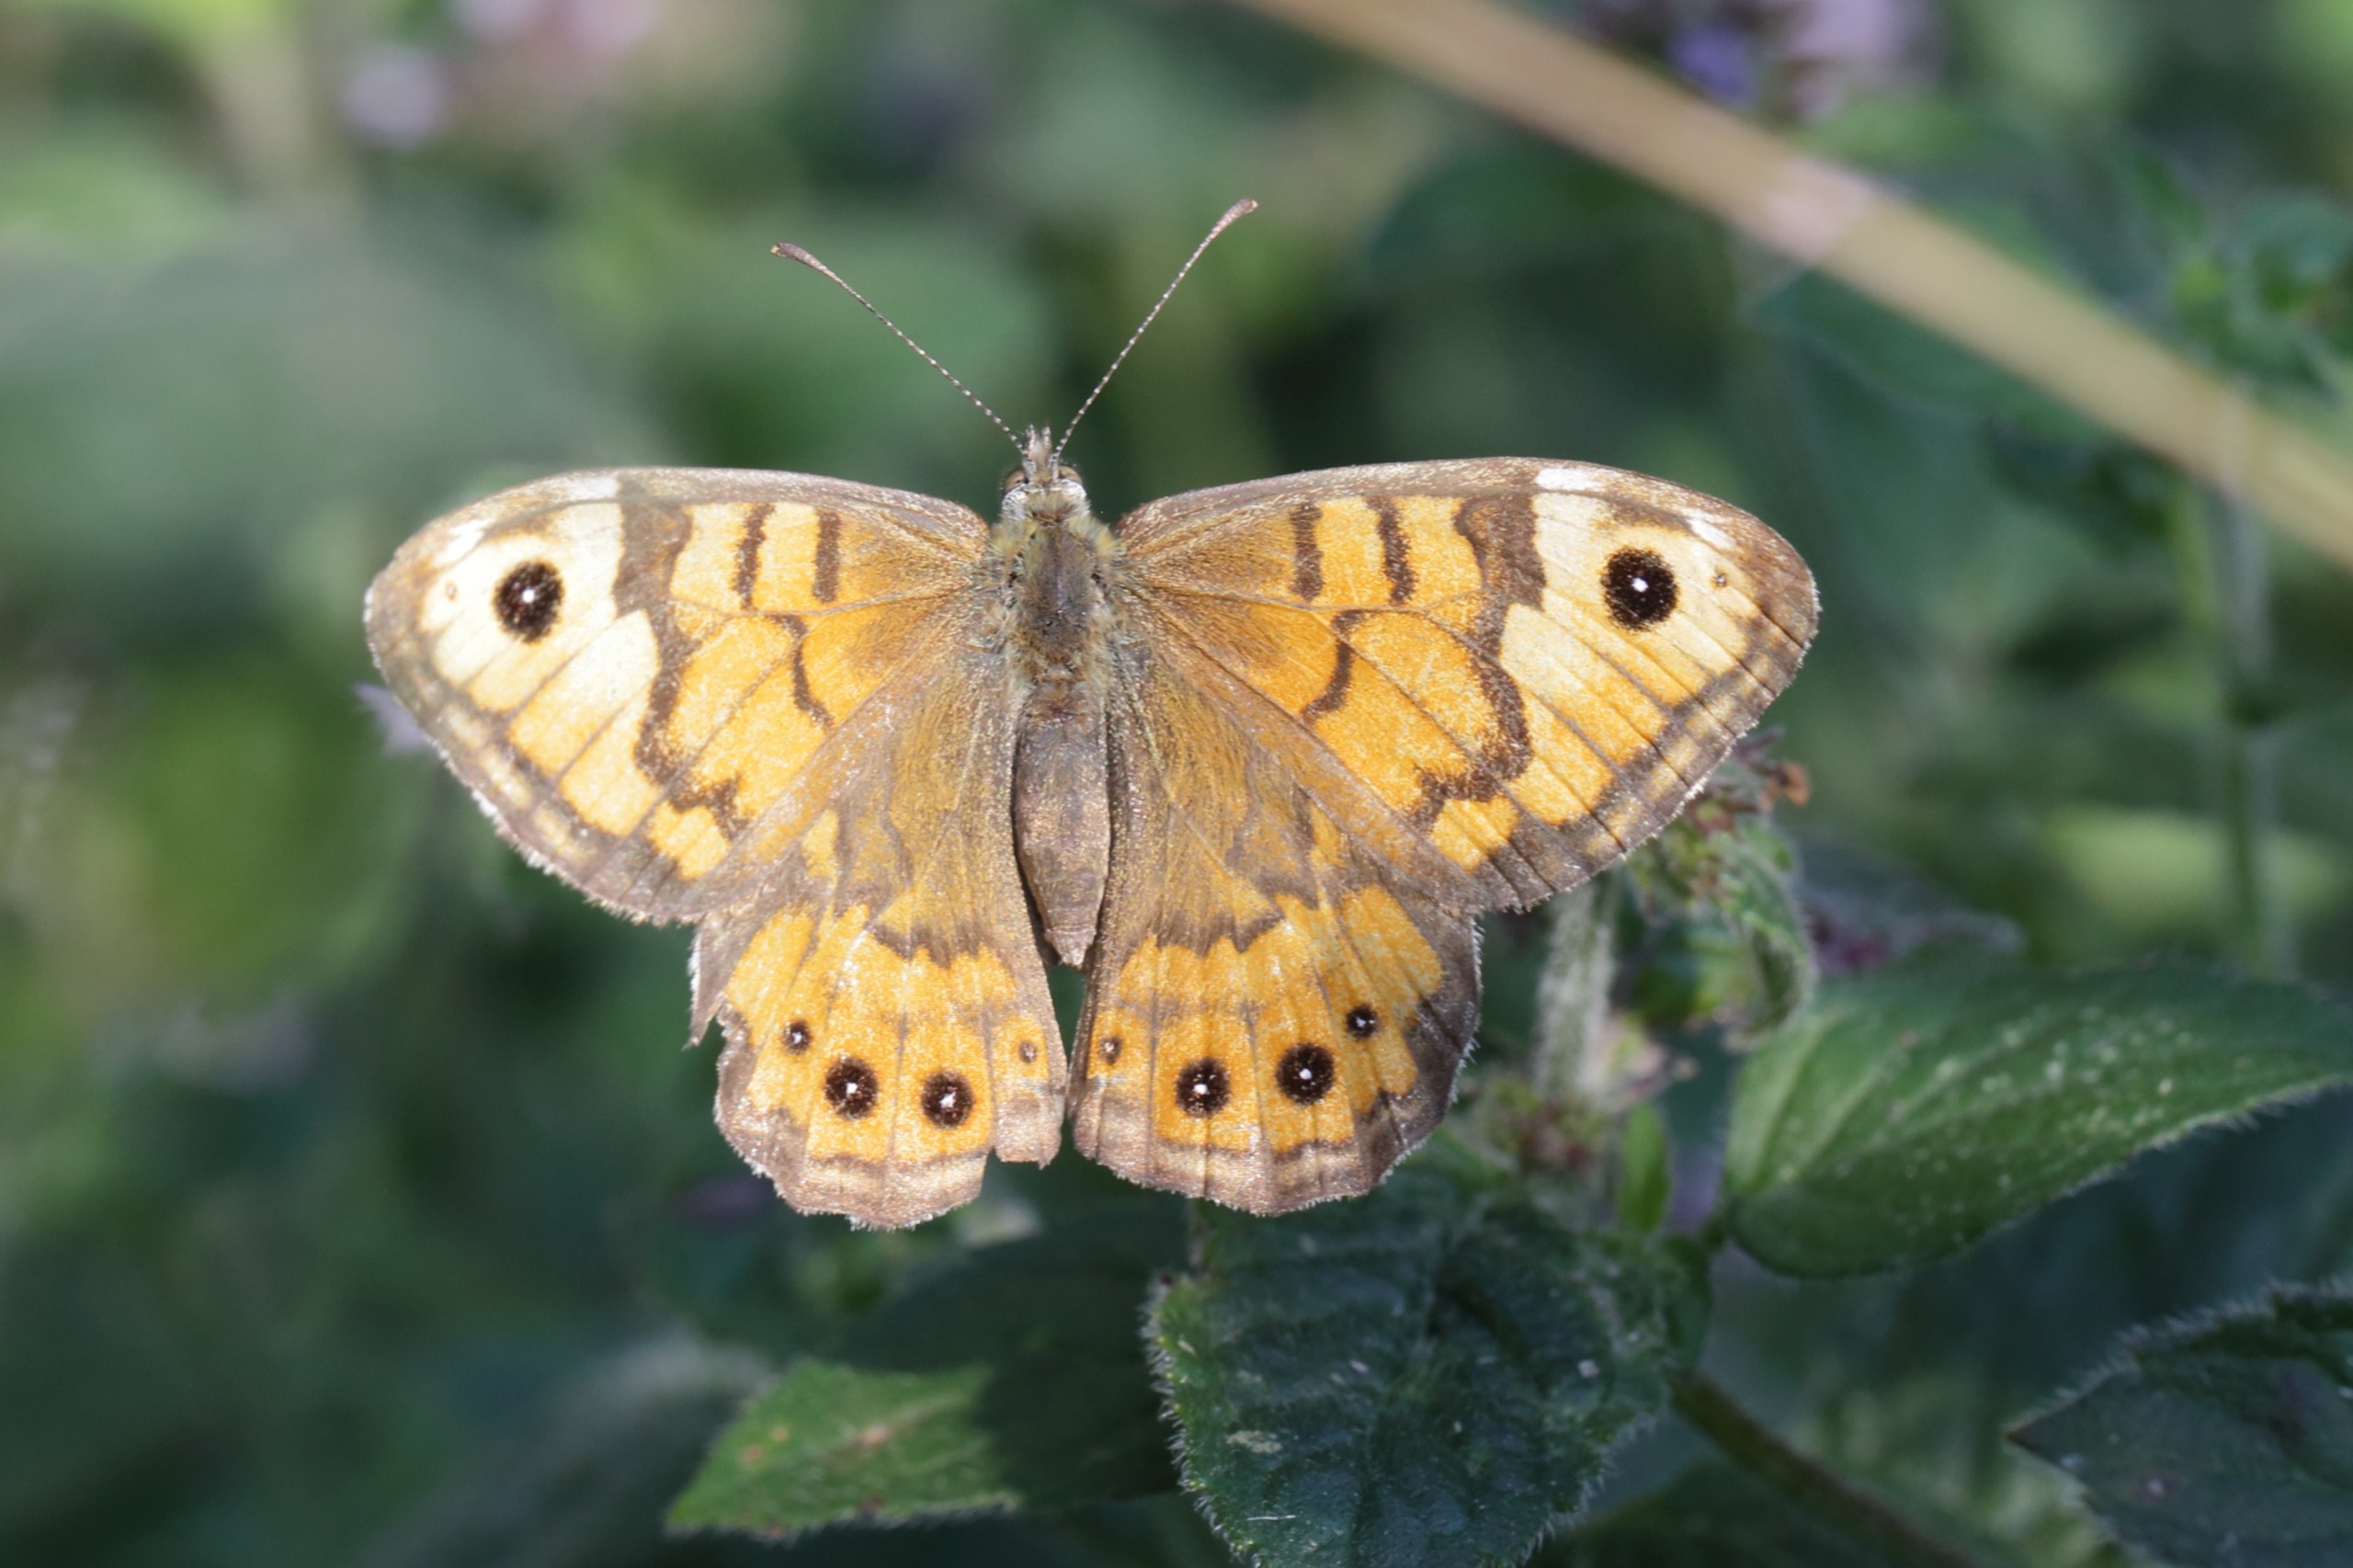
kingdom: Animalia
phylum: Arthropoda
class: Insecta
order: Lepidoptera
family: Nymphalidae
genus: Pararge
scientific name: Pararge Lasiommata megera
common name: Vejrandøje
